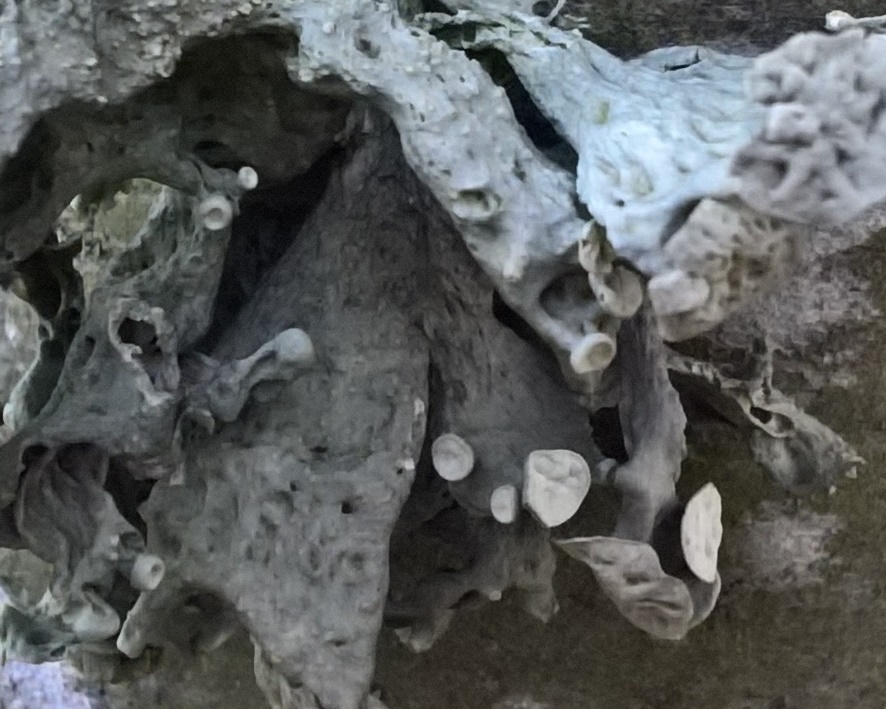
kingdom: Fungi
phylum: Ascomycota
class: Lecanoromycetes
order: Lecanorales
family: Ramalinaceae
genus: Ramalina
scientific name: Ramalina fastigiata
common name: tue-grenlav
